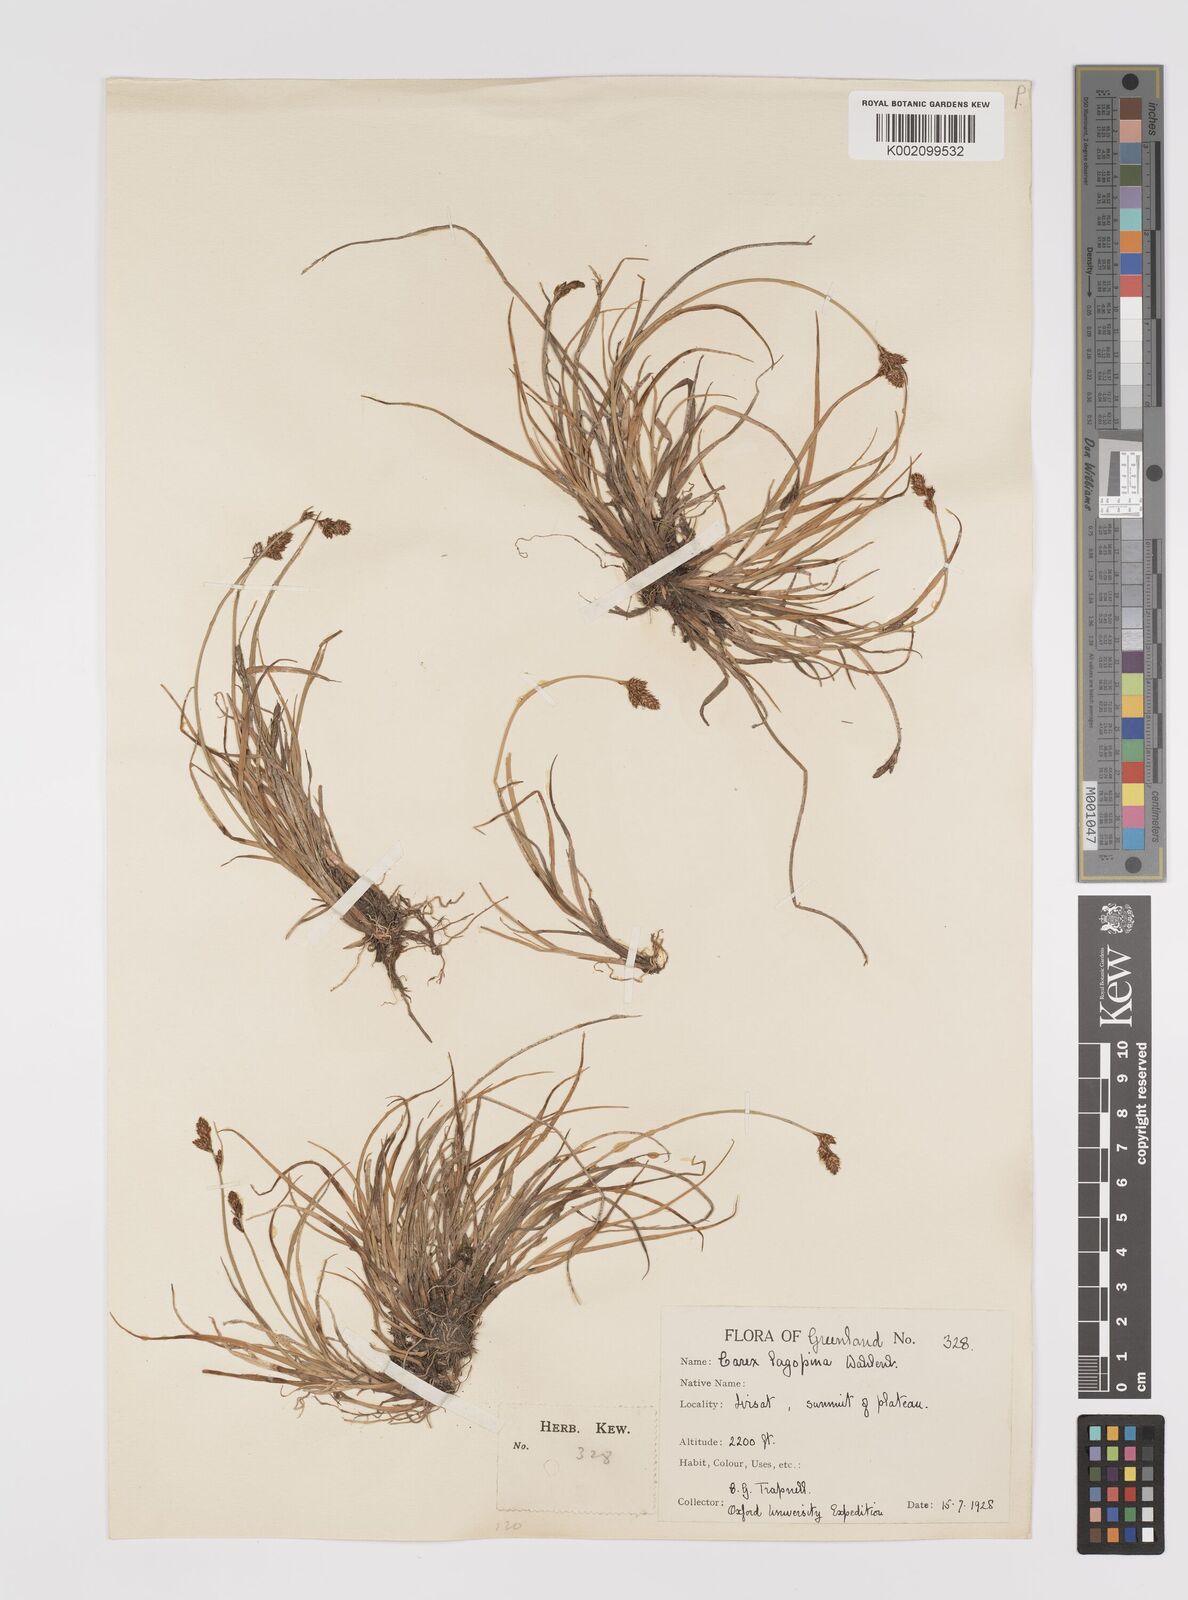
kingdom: Plantae
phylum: Tracheophyta
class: Liliopsida
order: Poales
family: Cyperaceae
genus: Carex
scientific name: Carex lachenalii
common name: Hare's-foot sedge
